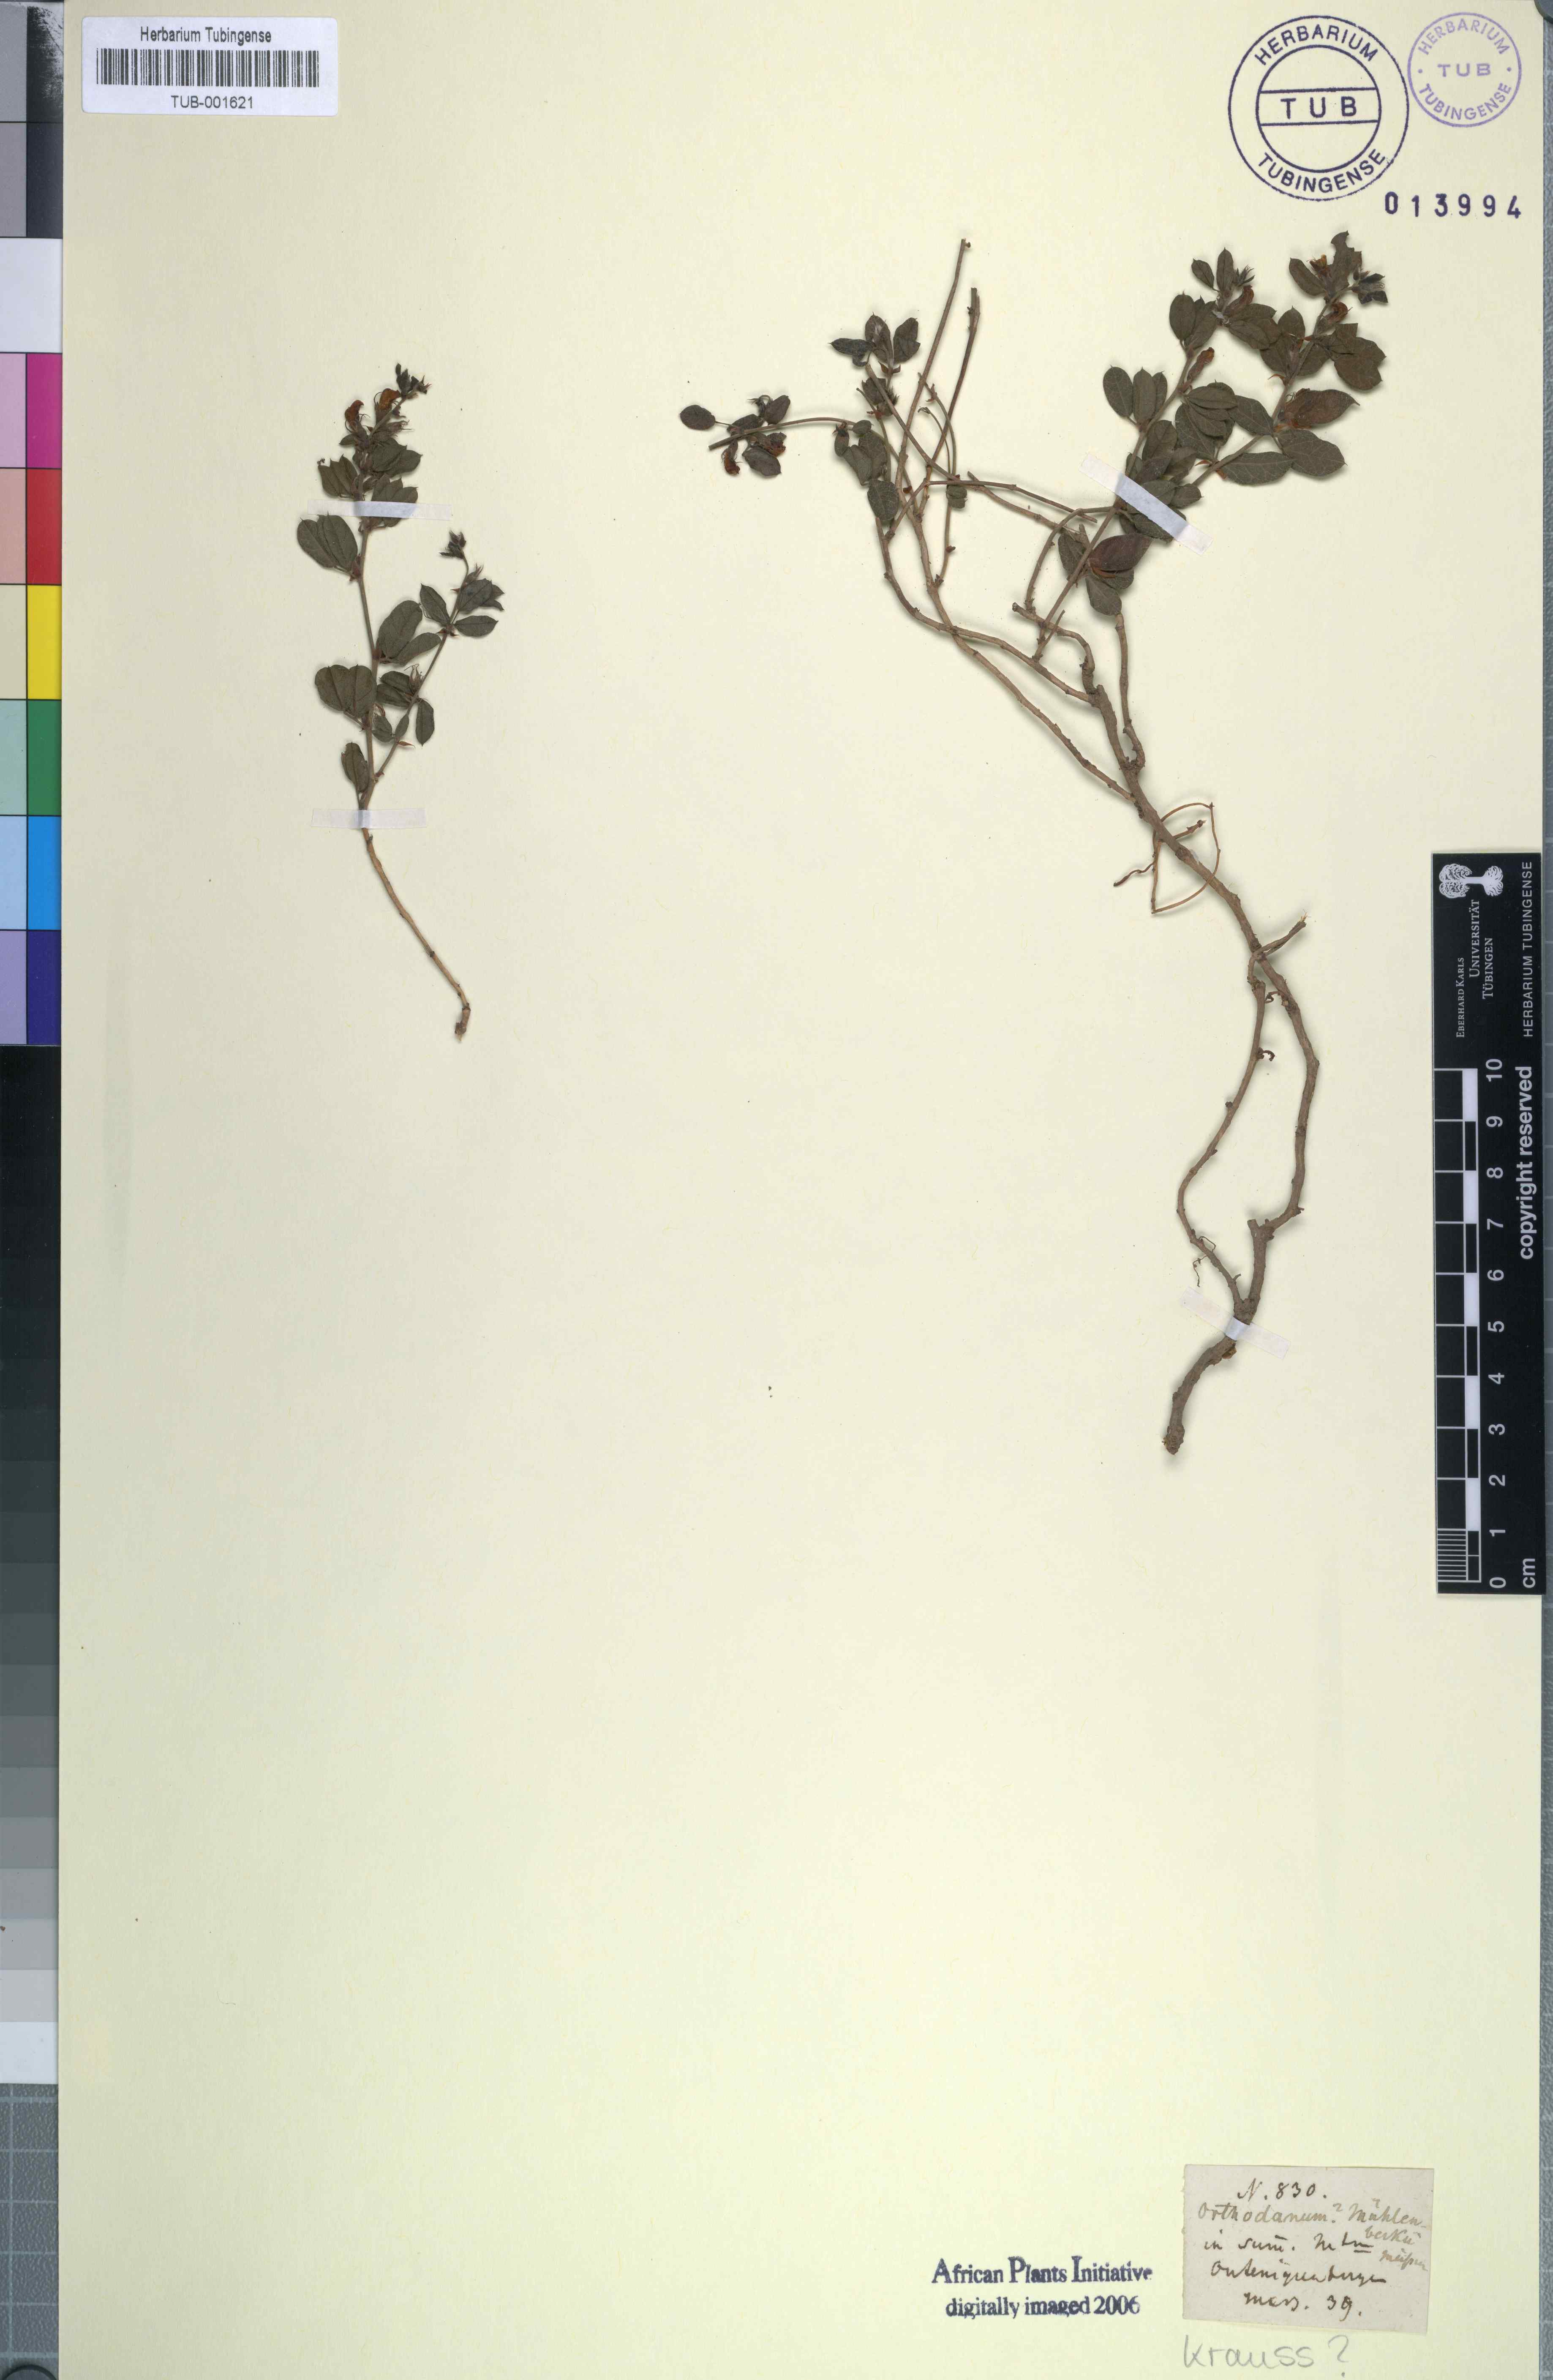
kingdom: Plantae
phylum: Tracheophyta
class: Magnoliopsida
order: Fabales
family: Fabaceae
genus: Rhynchosia
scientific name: Rhynchosia sordida
